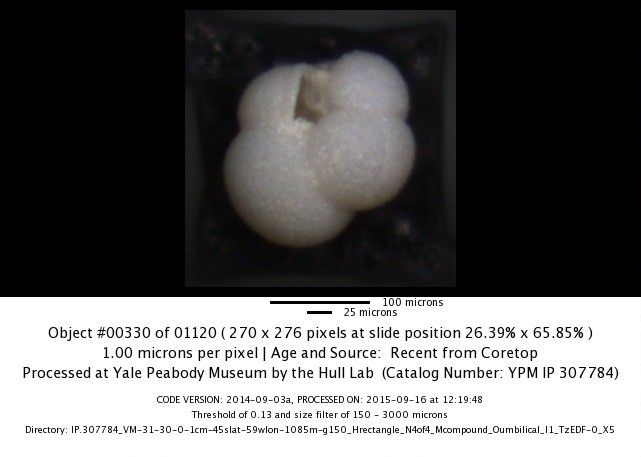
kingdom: Chromista
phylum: Foraminifera
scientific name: Foraminifera
